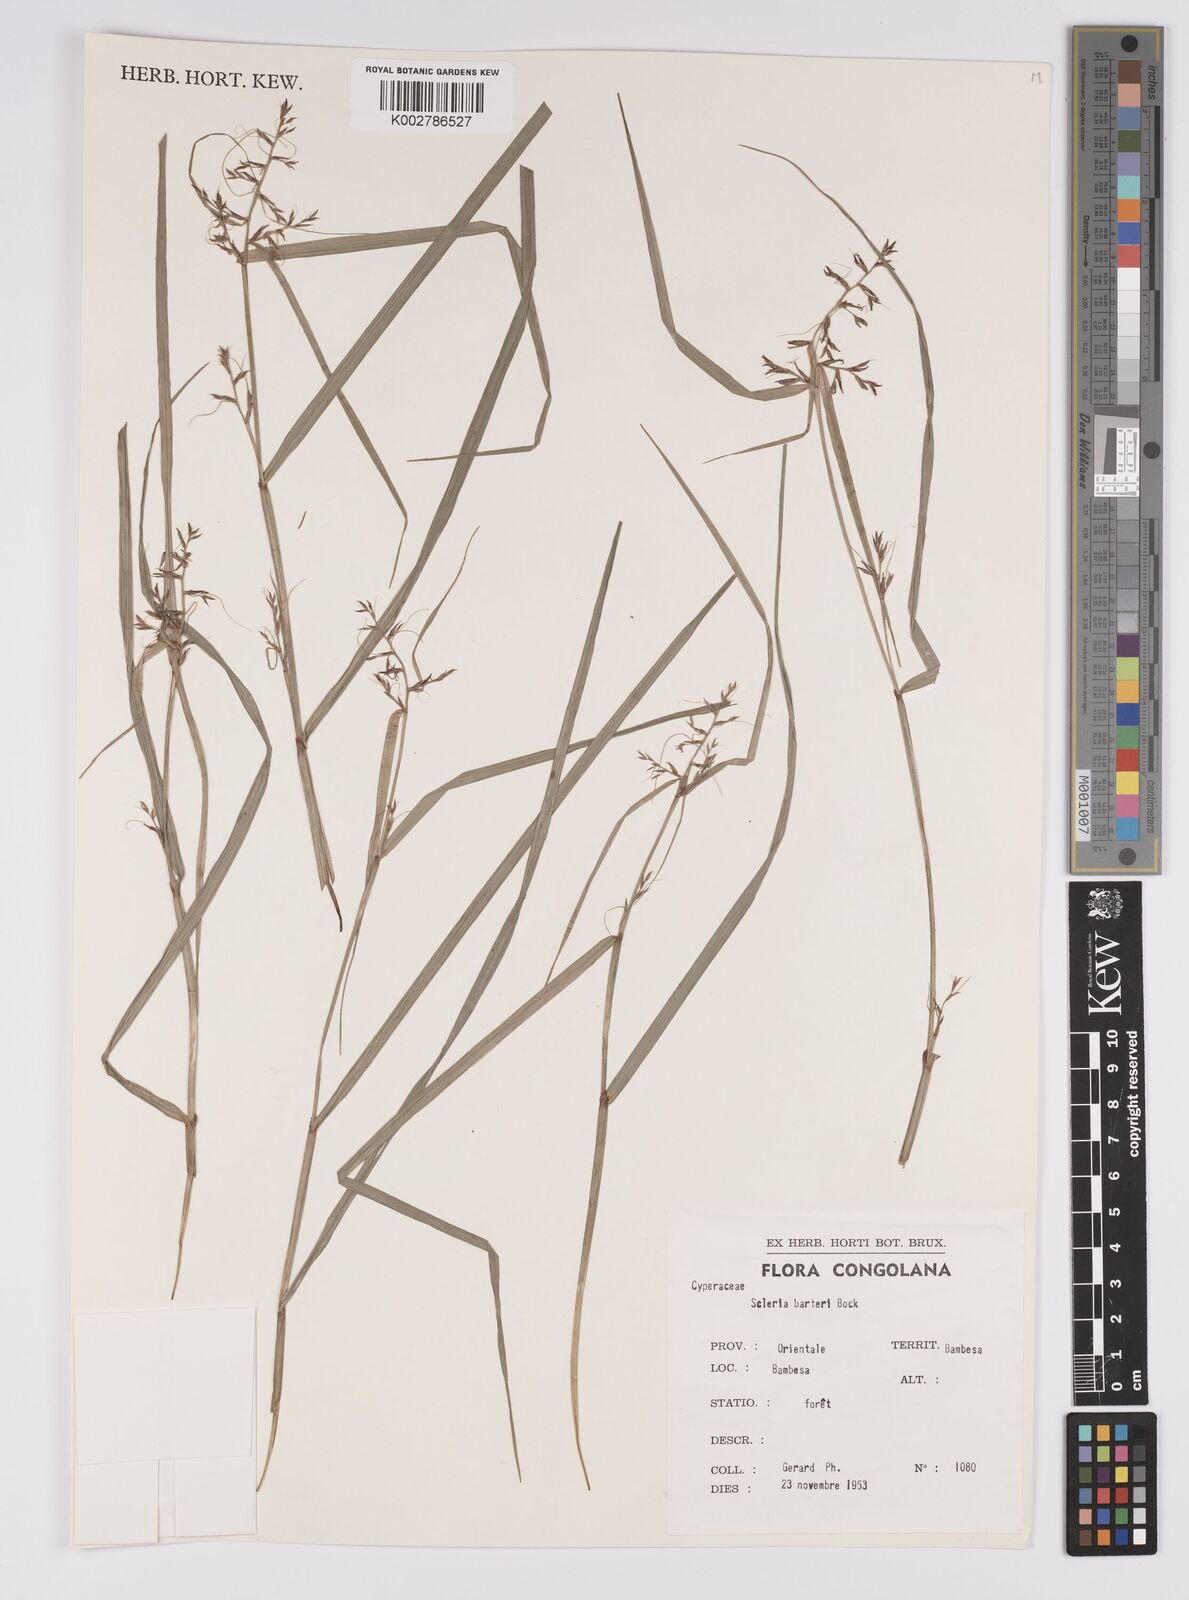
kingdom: Plantae
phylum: Tracheophyta
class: Liliopsida
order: Poales
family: Cyperaceae
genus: Scleria
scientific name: Scleria boivinii
